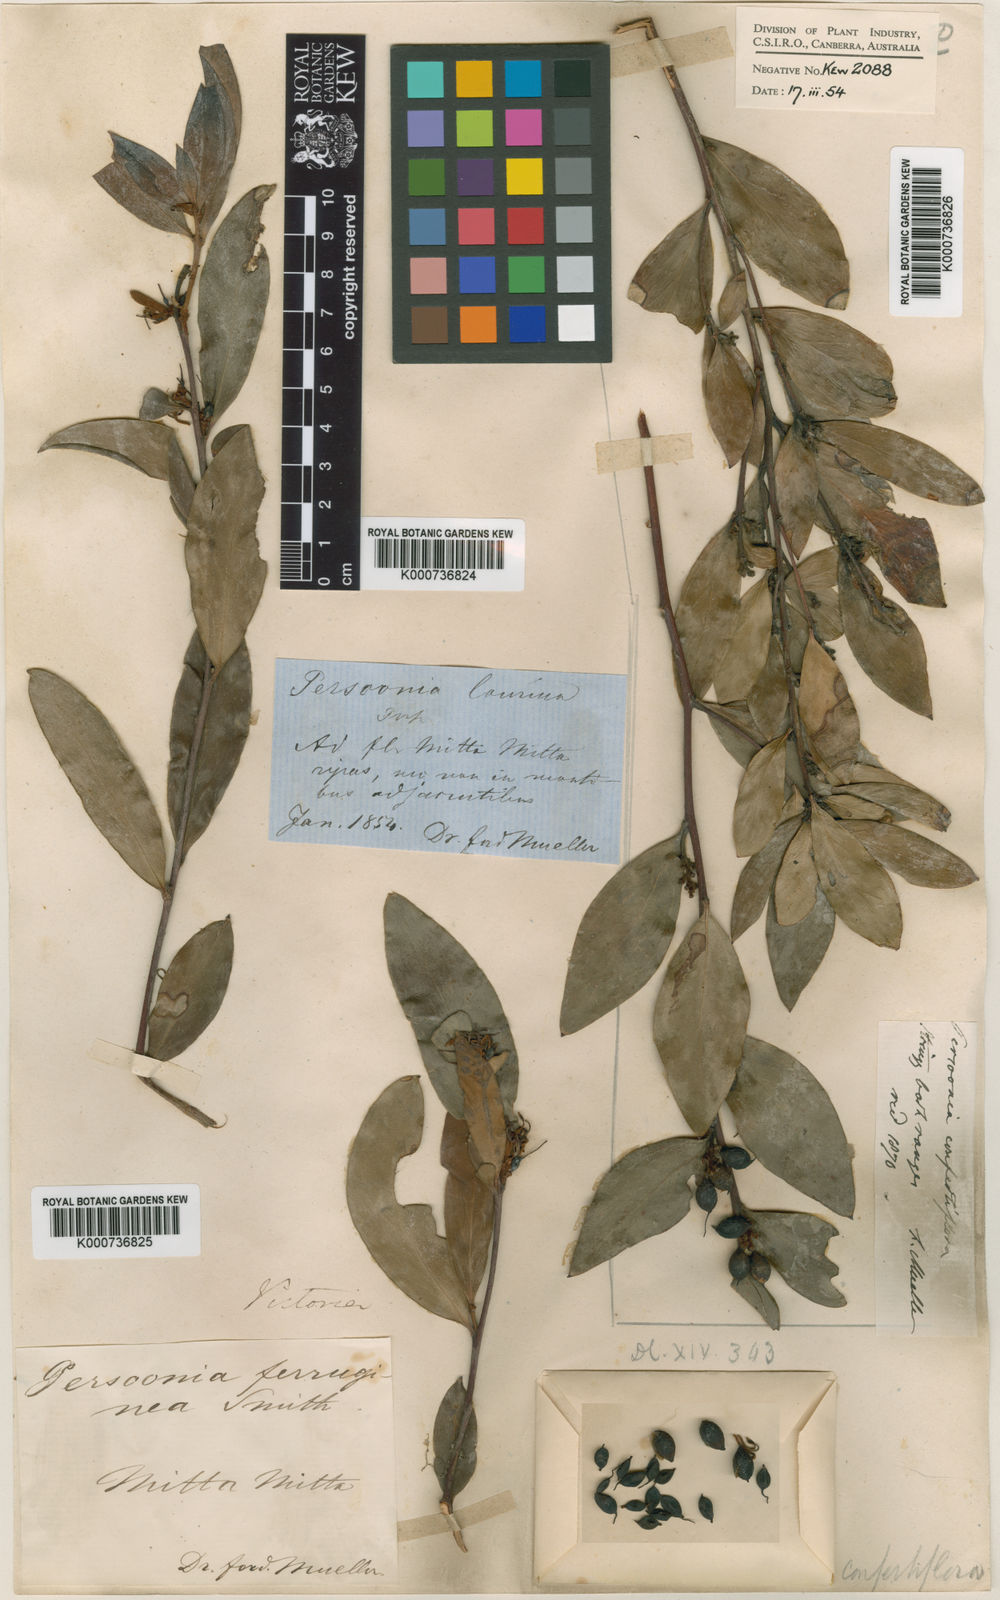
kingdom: Plantae
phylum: Tracheophyta
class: Magnoliopsida
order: Proteales
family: Proteaceae
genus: Persoonia
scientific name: Persoonia confertifolia
